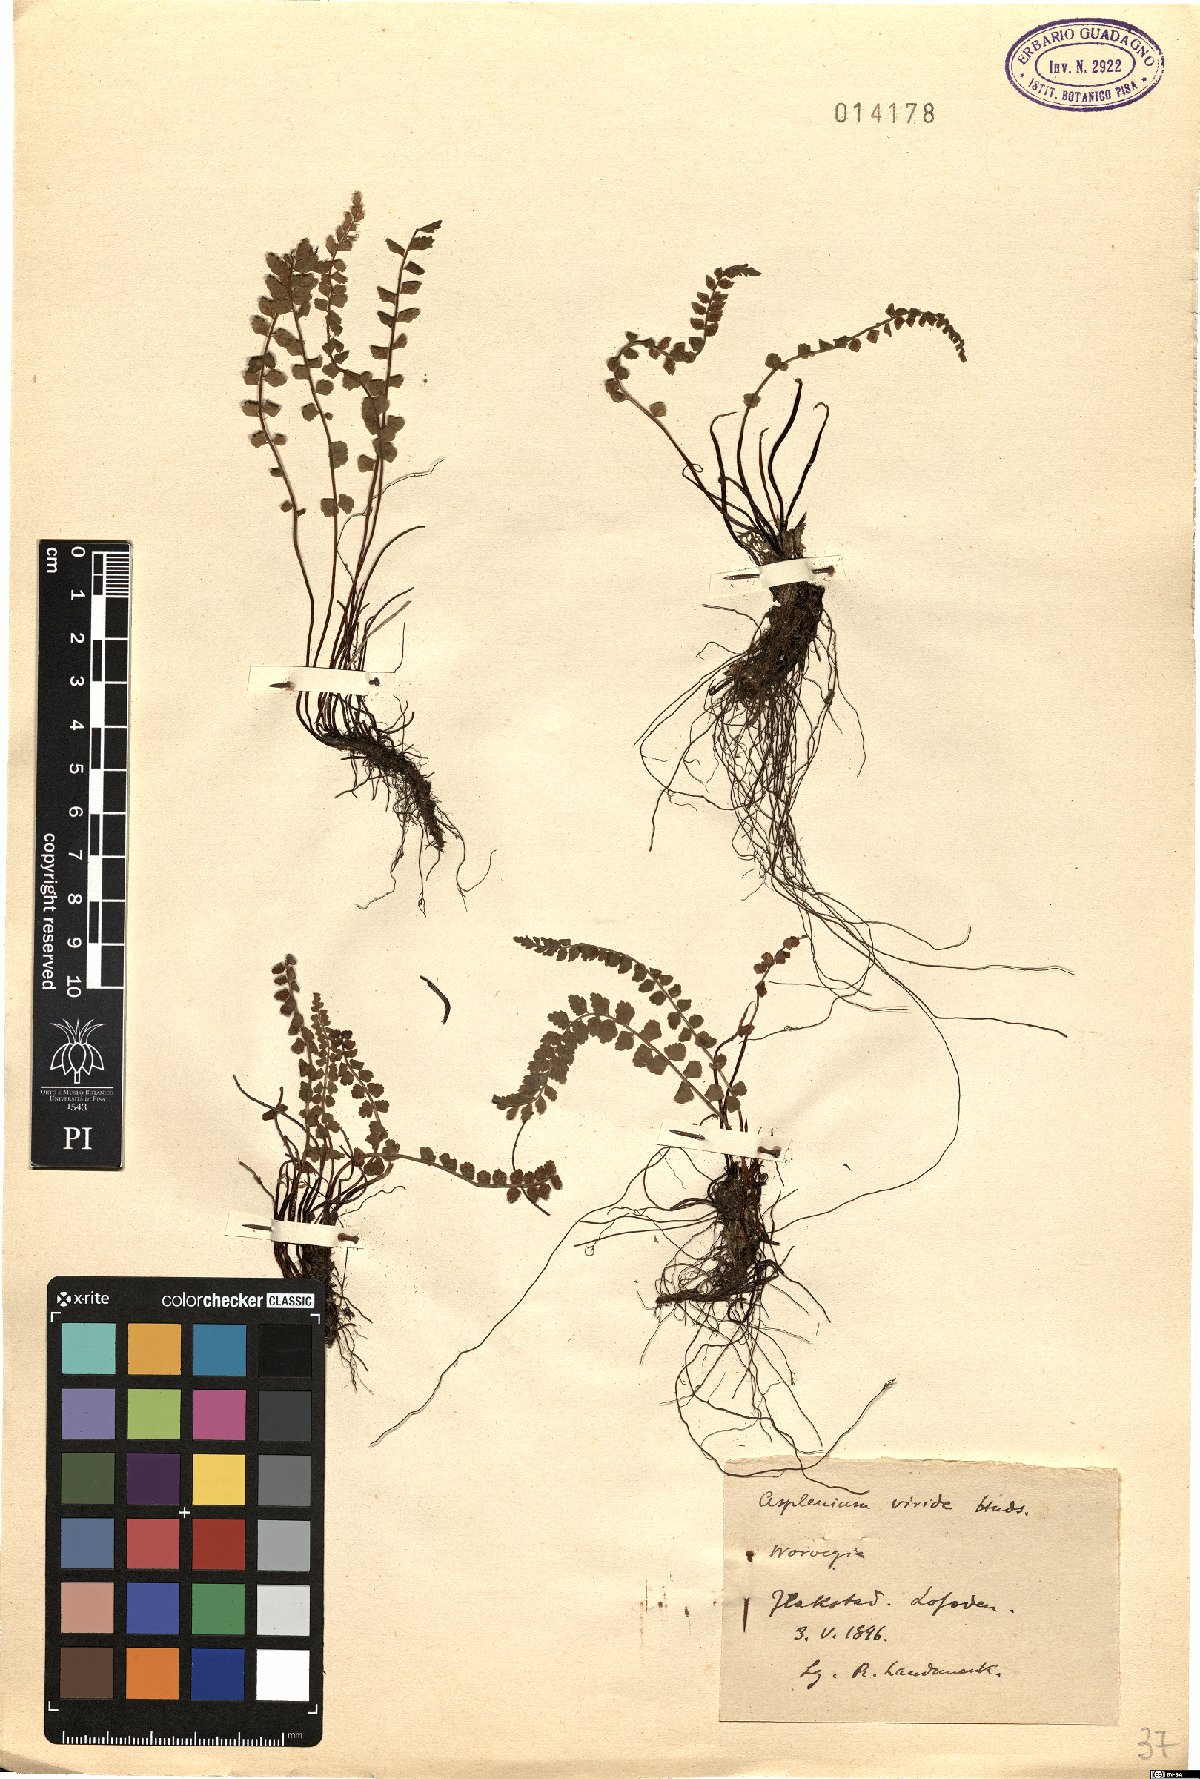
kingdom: Plantae
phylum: Tracheophyta
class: Polypodiopsida
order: Polypodiales
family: Aspleniaceae
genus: Asplenium
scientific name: Asplenium viride
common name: Green spleenwort
